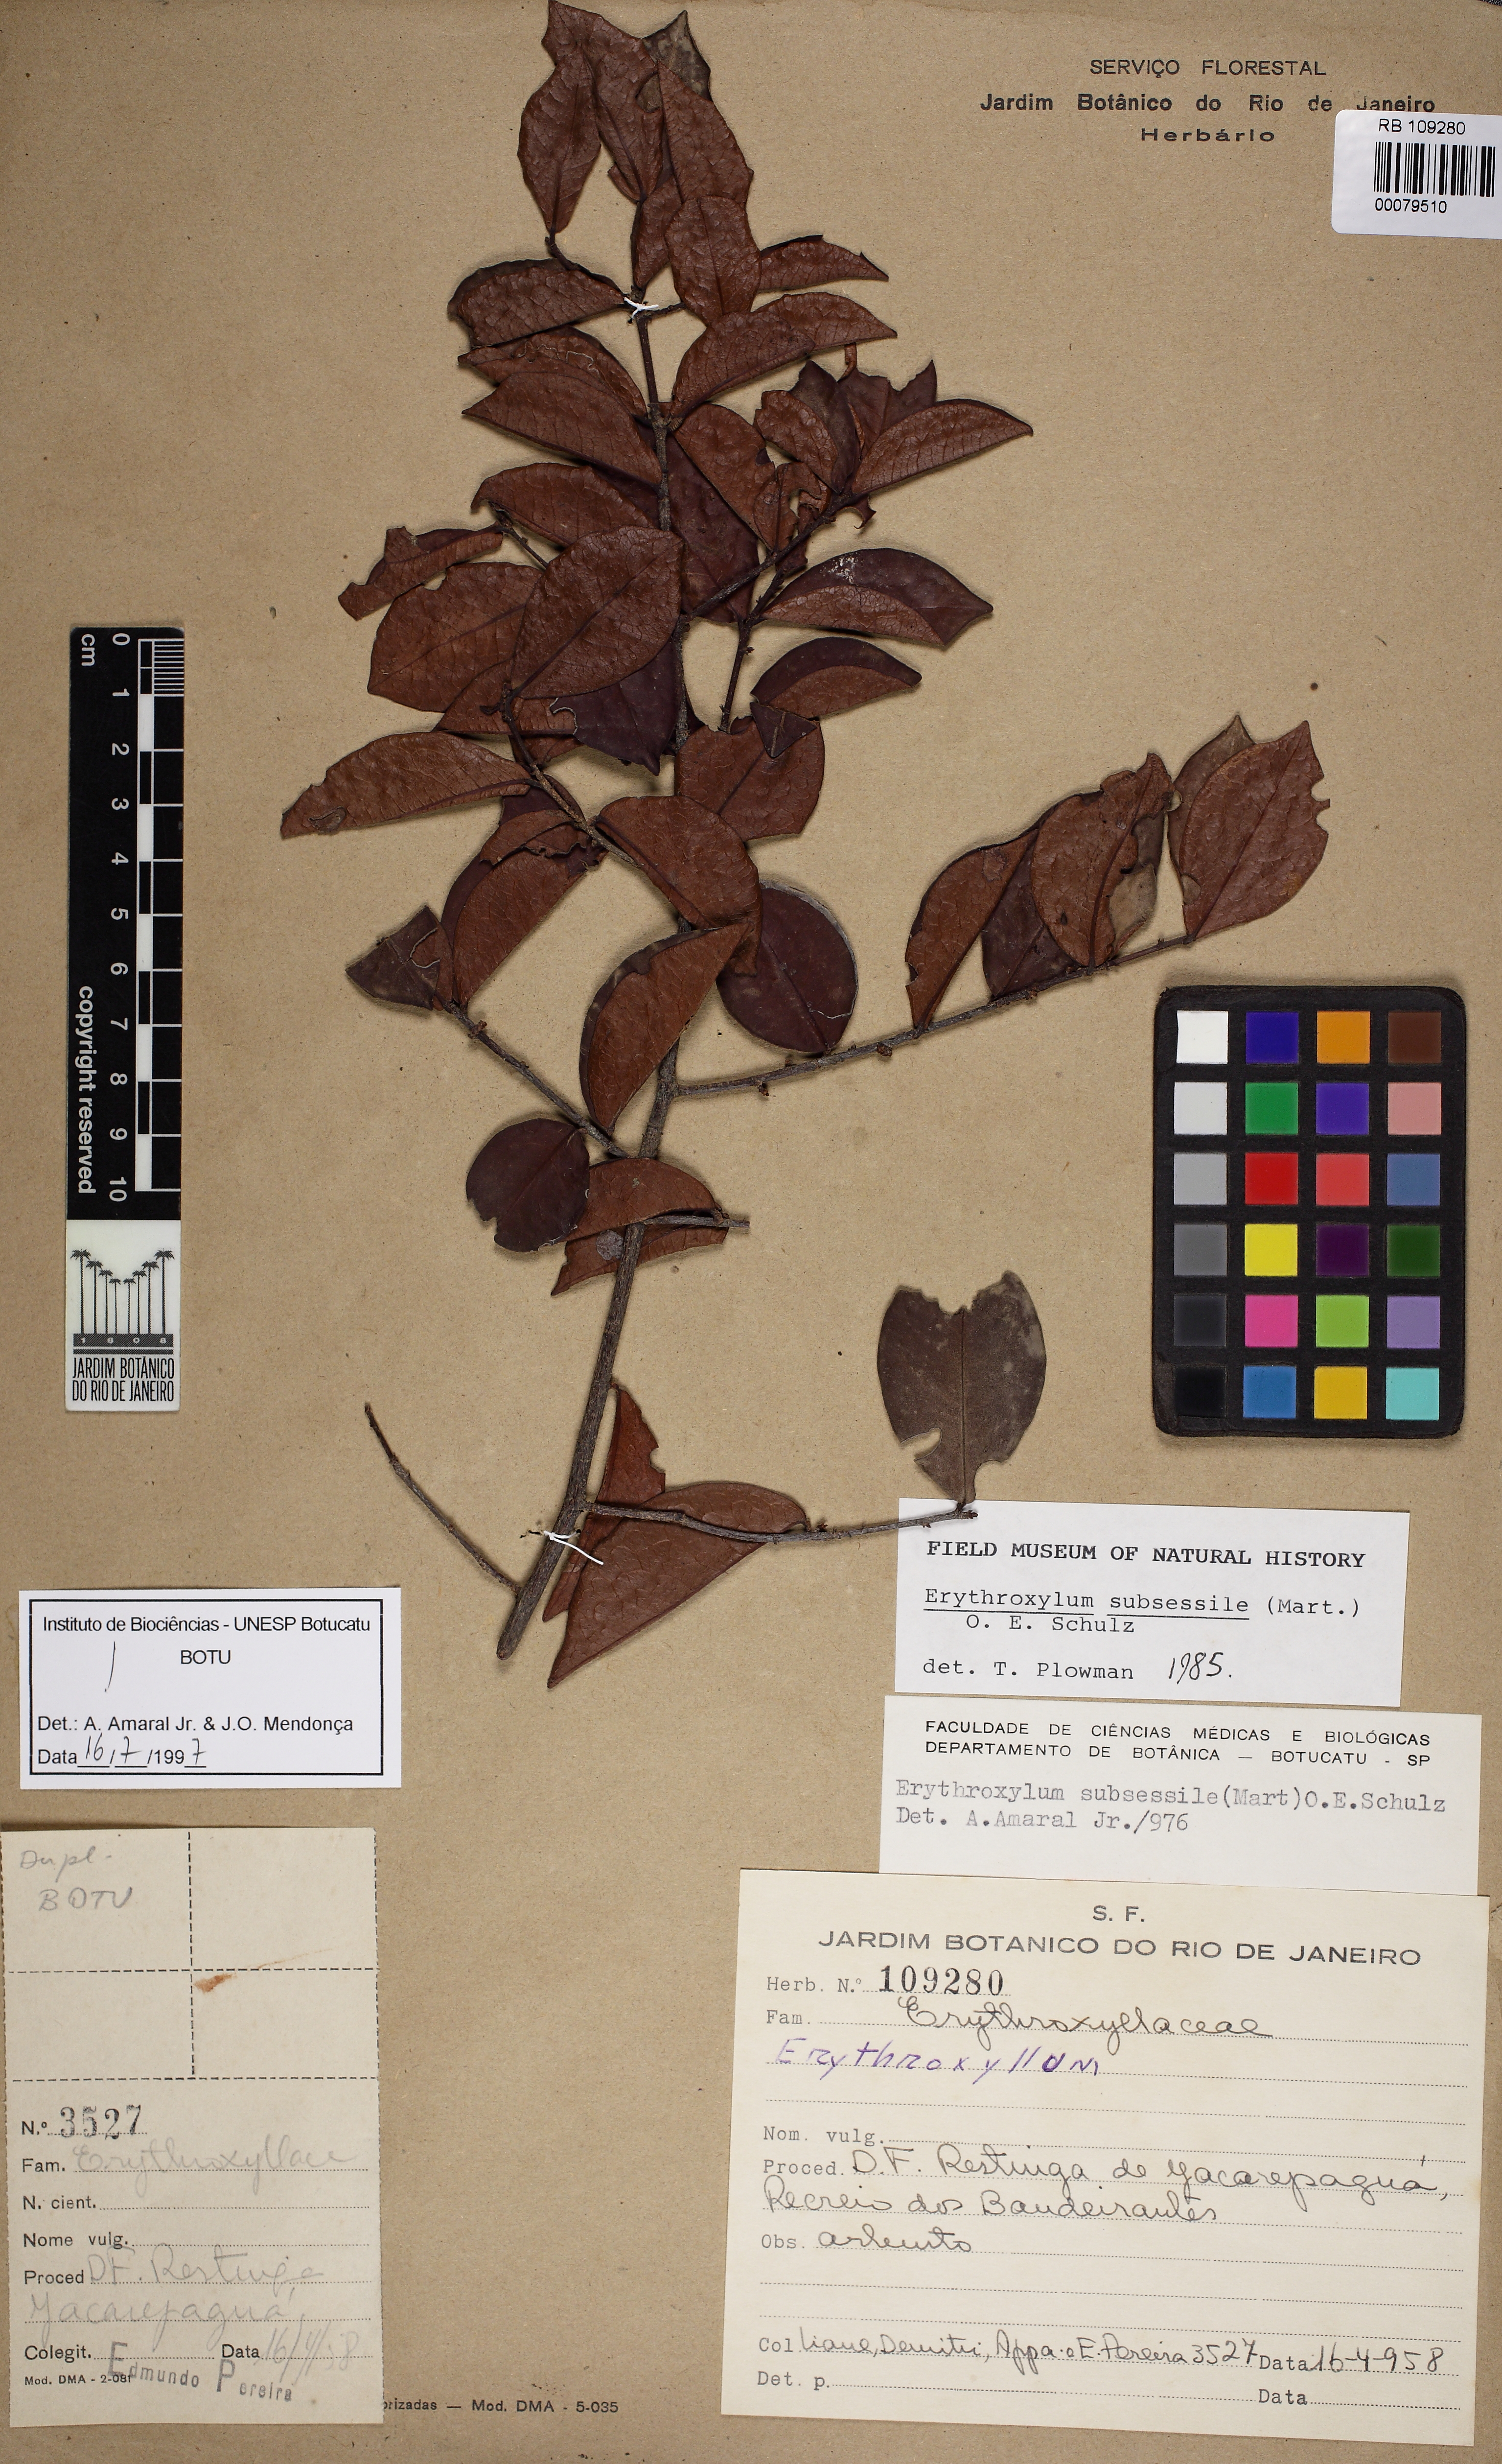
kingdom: Plantae
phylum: Tracheophyta
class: Magnoliopsida
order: Malpighiales
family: Erythroxylaceae
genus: Erythroxylum
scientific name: Erythroxylum macrocalyx
